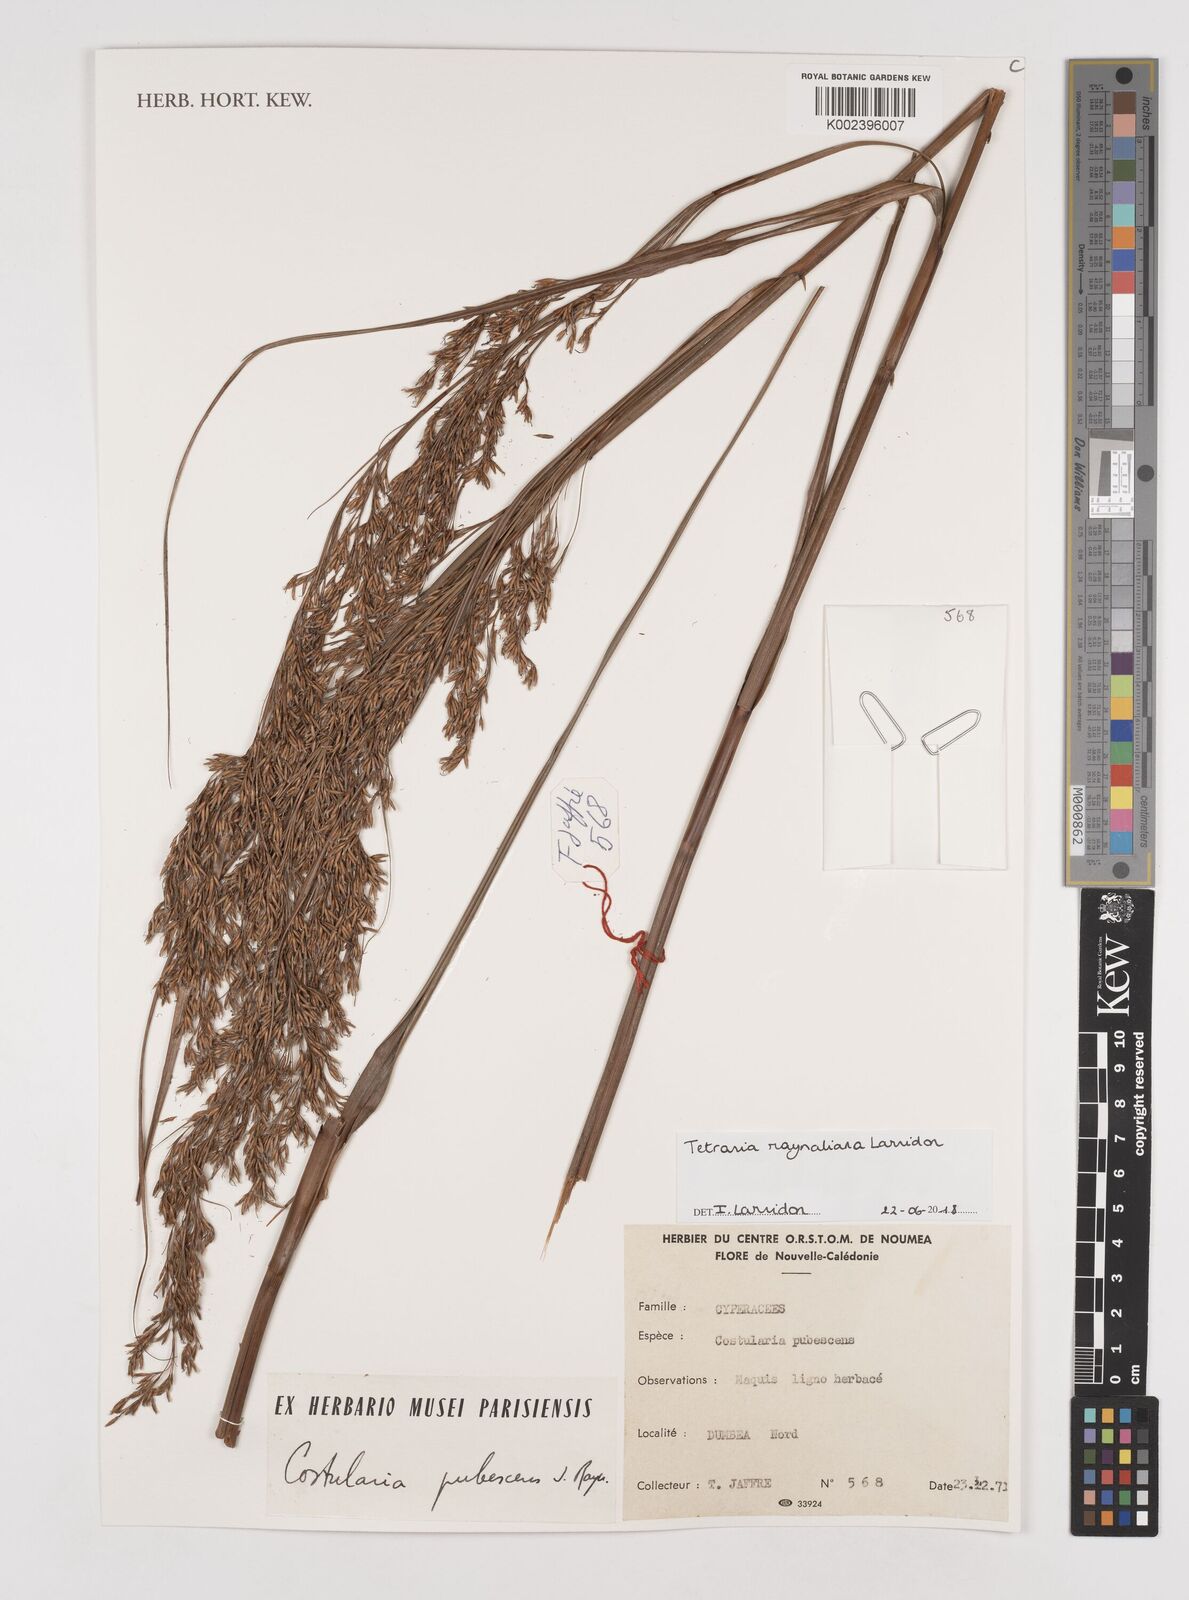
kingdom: Plantae
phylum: Tracheophyta
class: Liliopsida
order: Poales
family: Cyperaceae
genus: Tetraria
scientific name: Tetraria raynaliana
